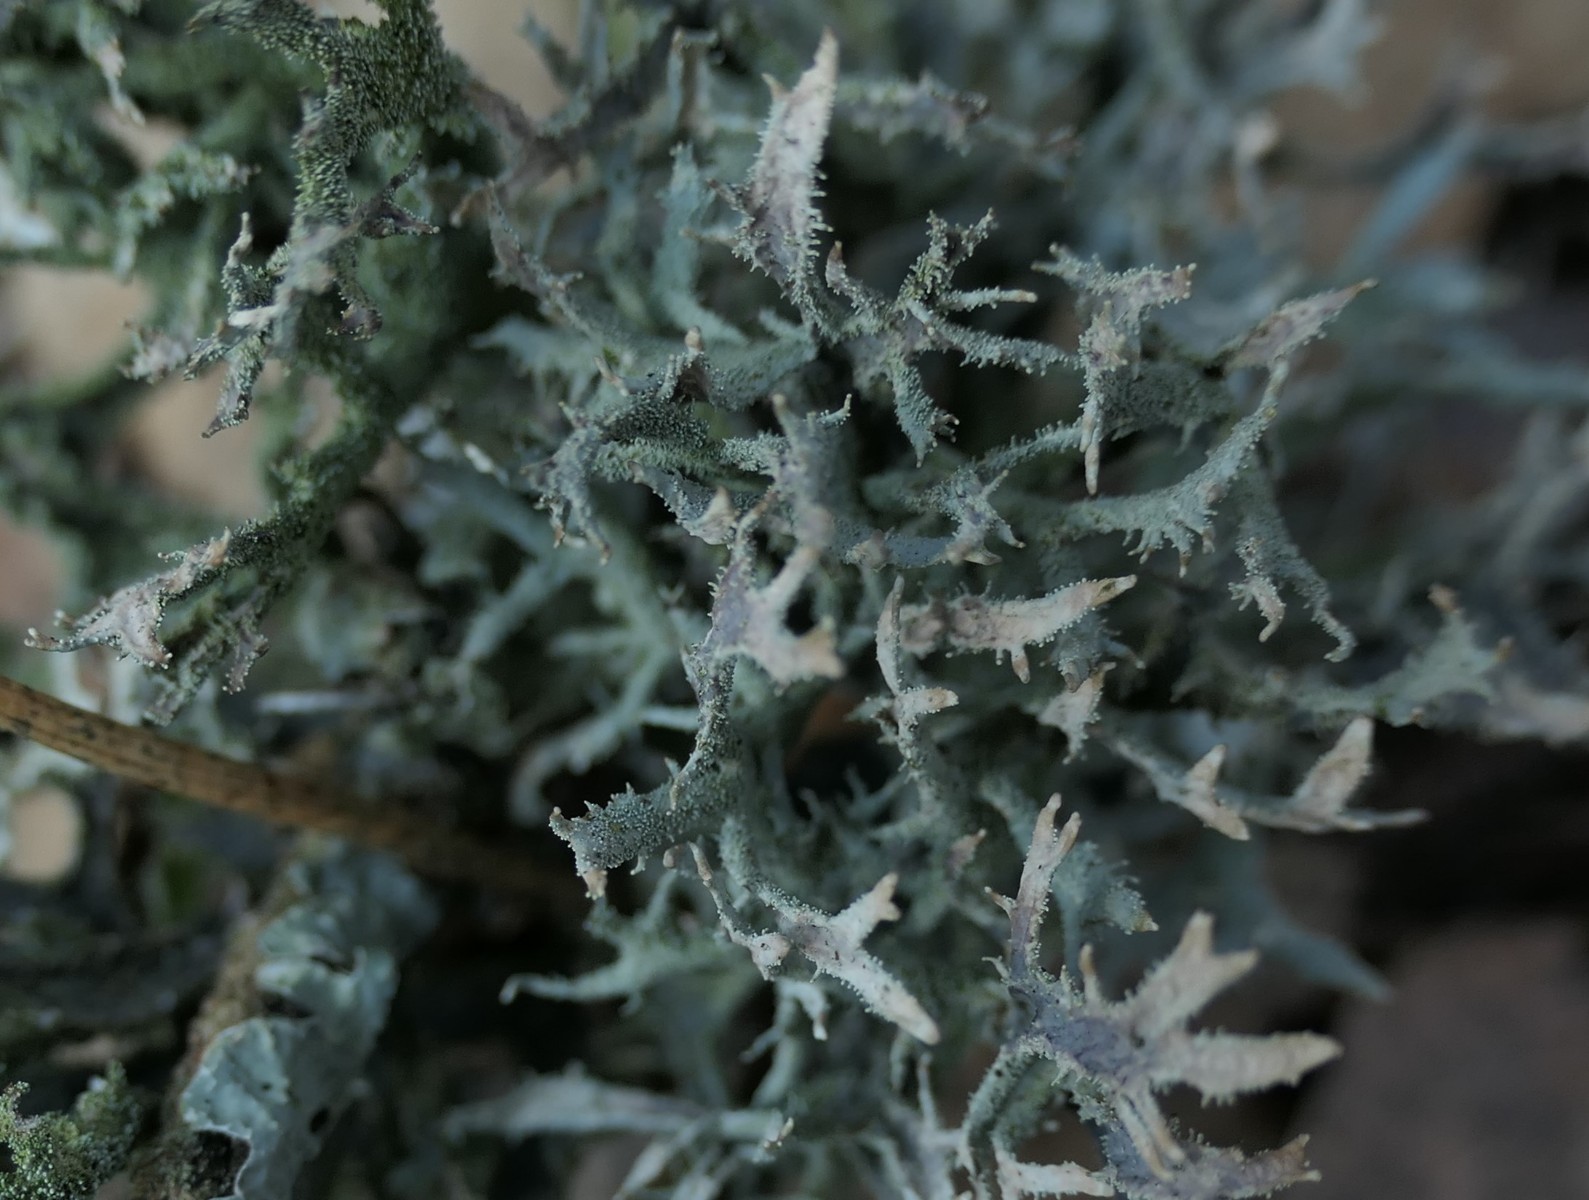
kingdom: Fungi
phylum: Ascomycota
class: Lecanoromycetes
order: Lecanorales
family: Parmeliaceae
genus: Pseudevernia
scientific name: Pseudevernia furfuracea
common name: grå fyrrelav
